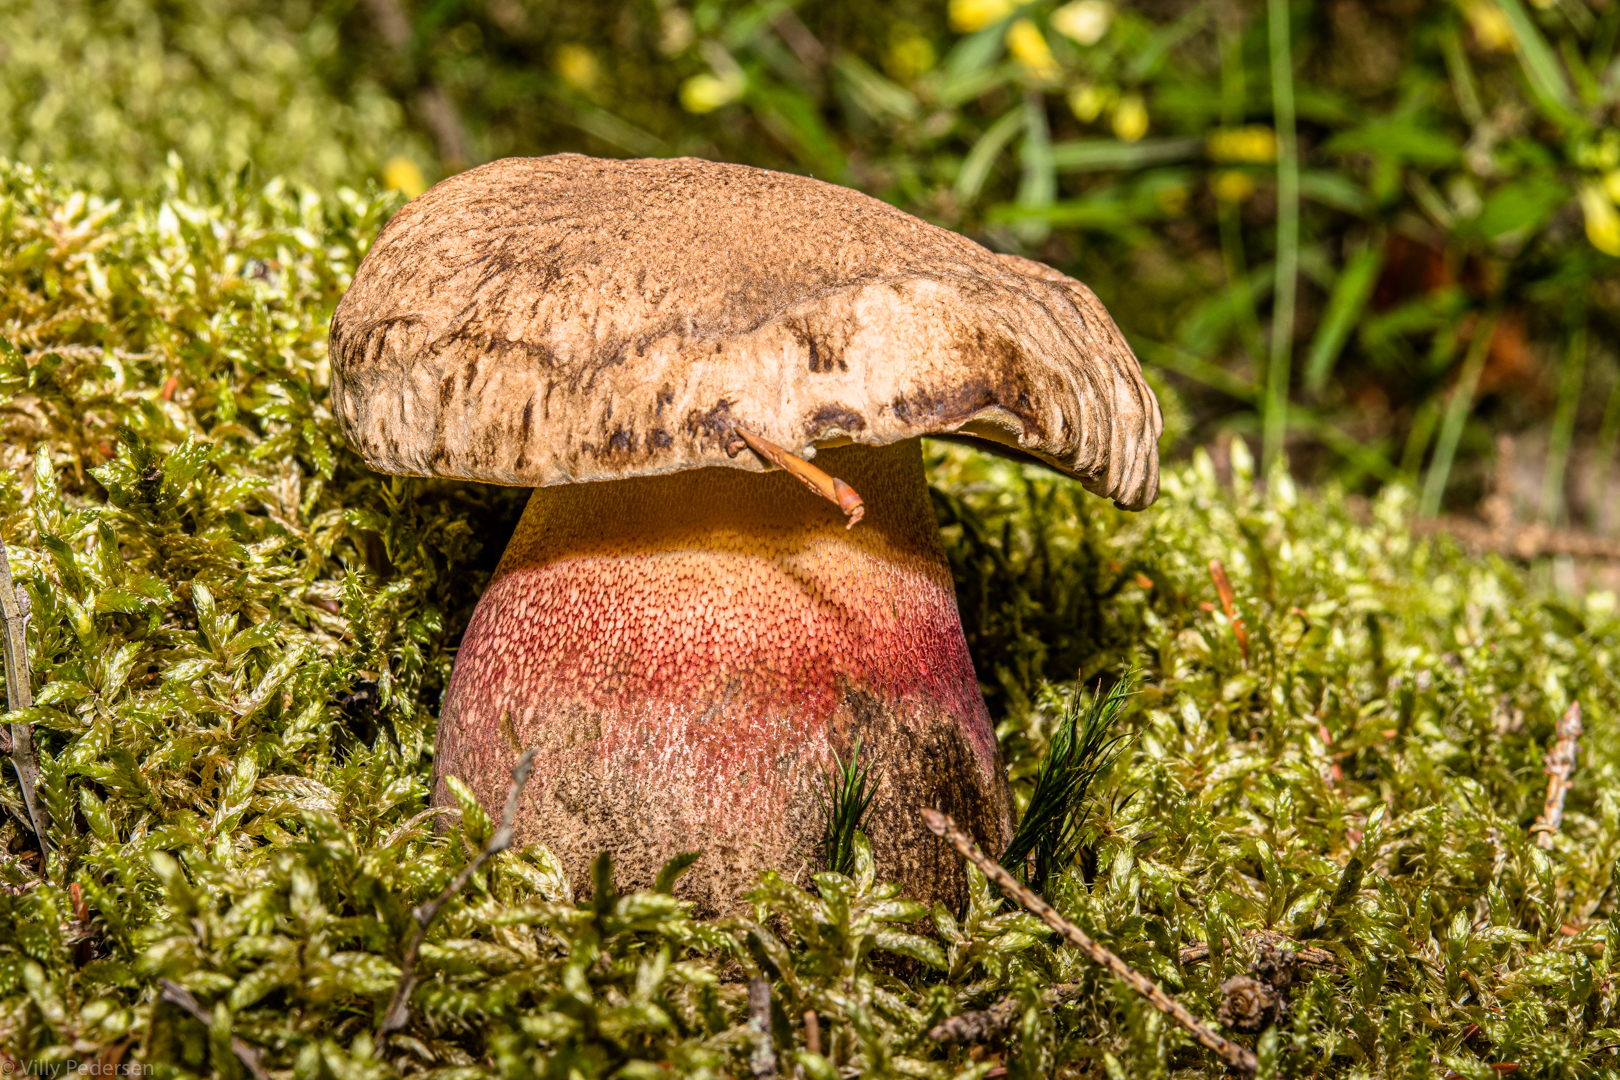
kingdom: Fungi
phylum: Basidiomycota
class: Agaricomycetes
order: Boletales
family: Boletaceae
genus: Caloboletus
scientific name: Caloboletus calopus
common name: skønfodet rørhat
